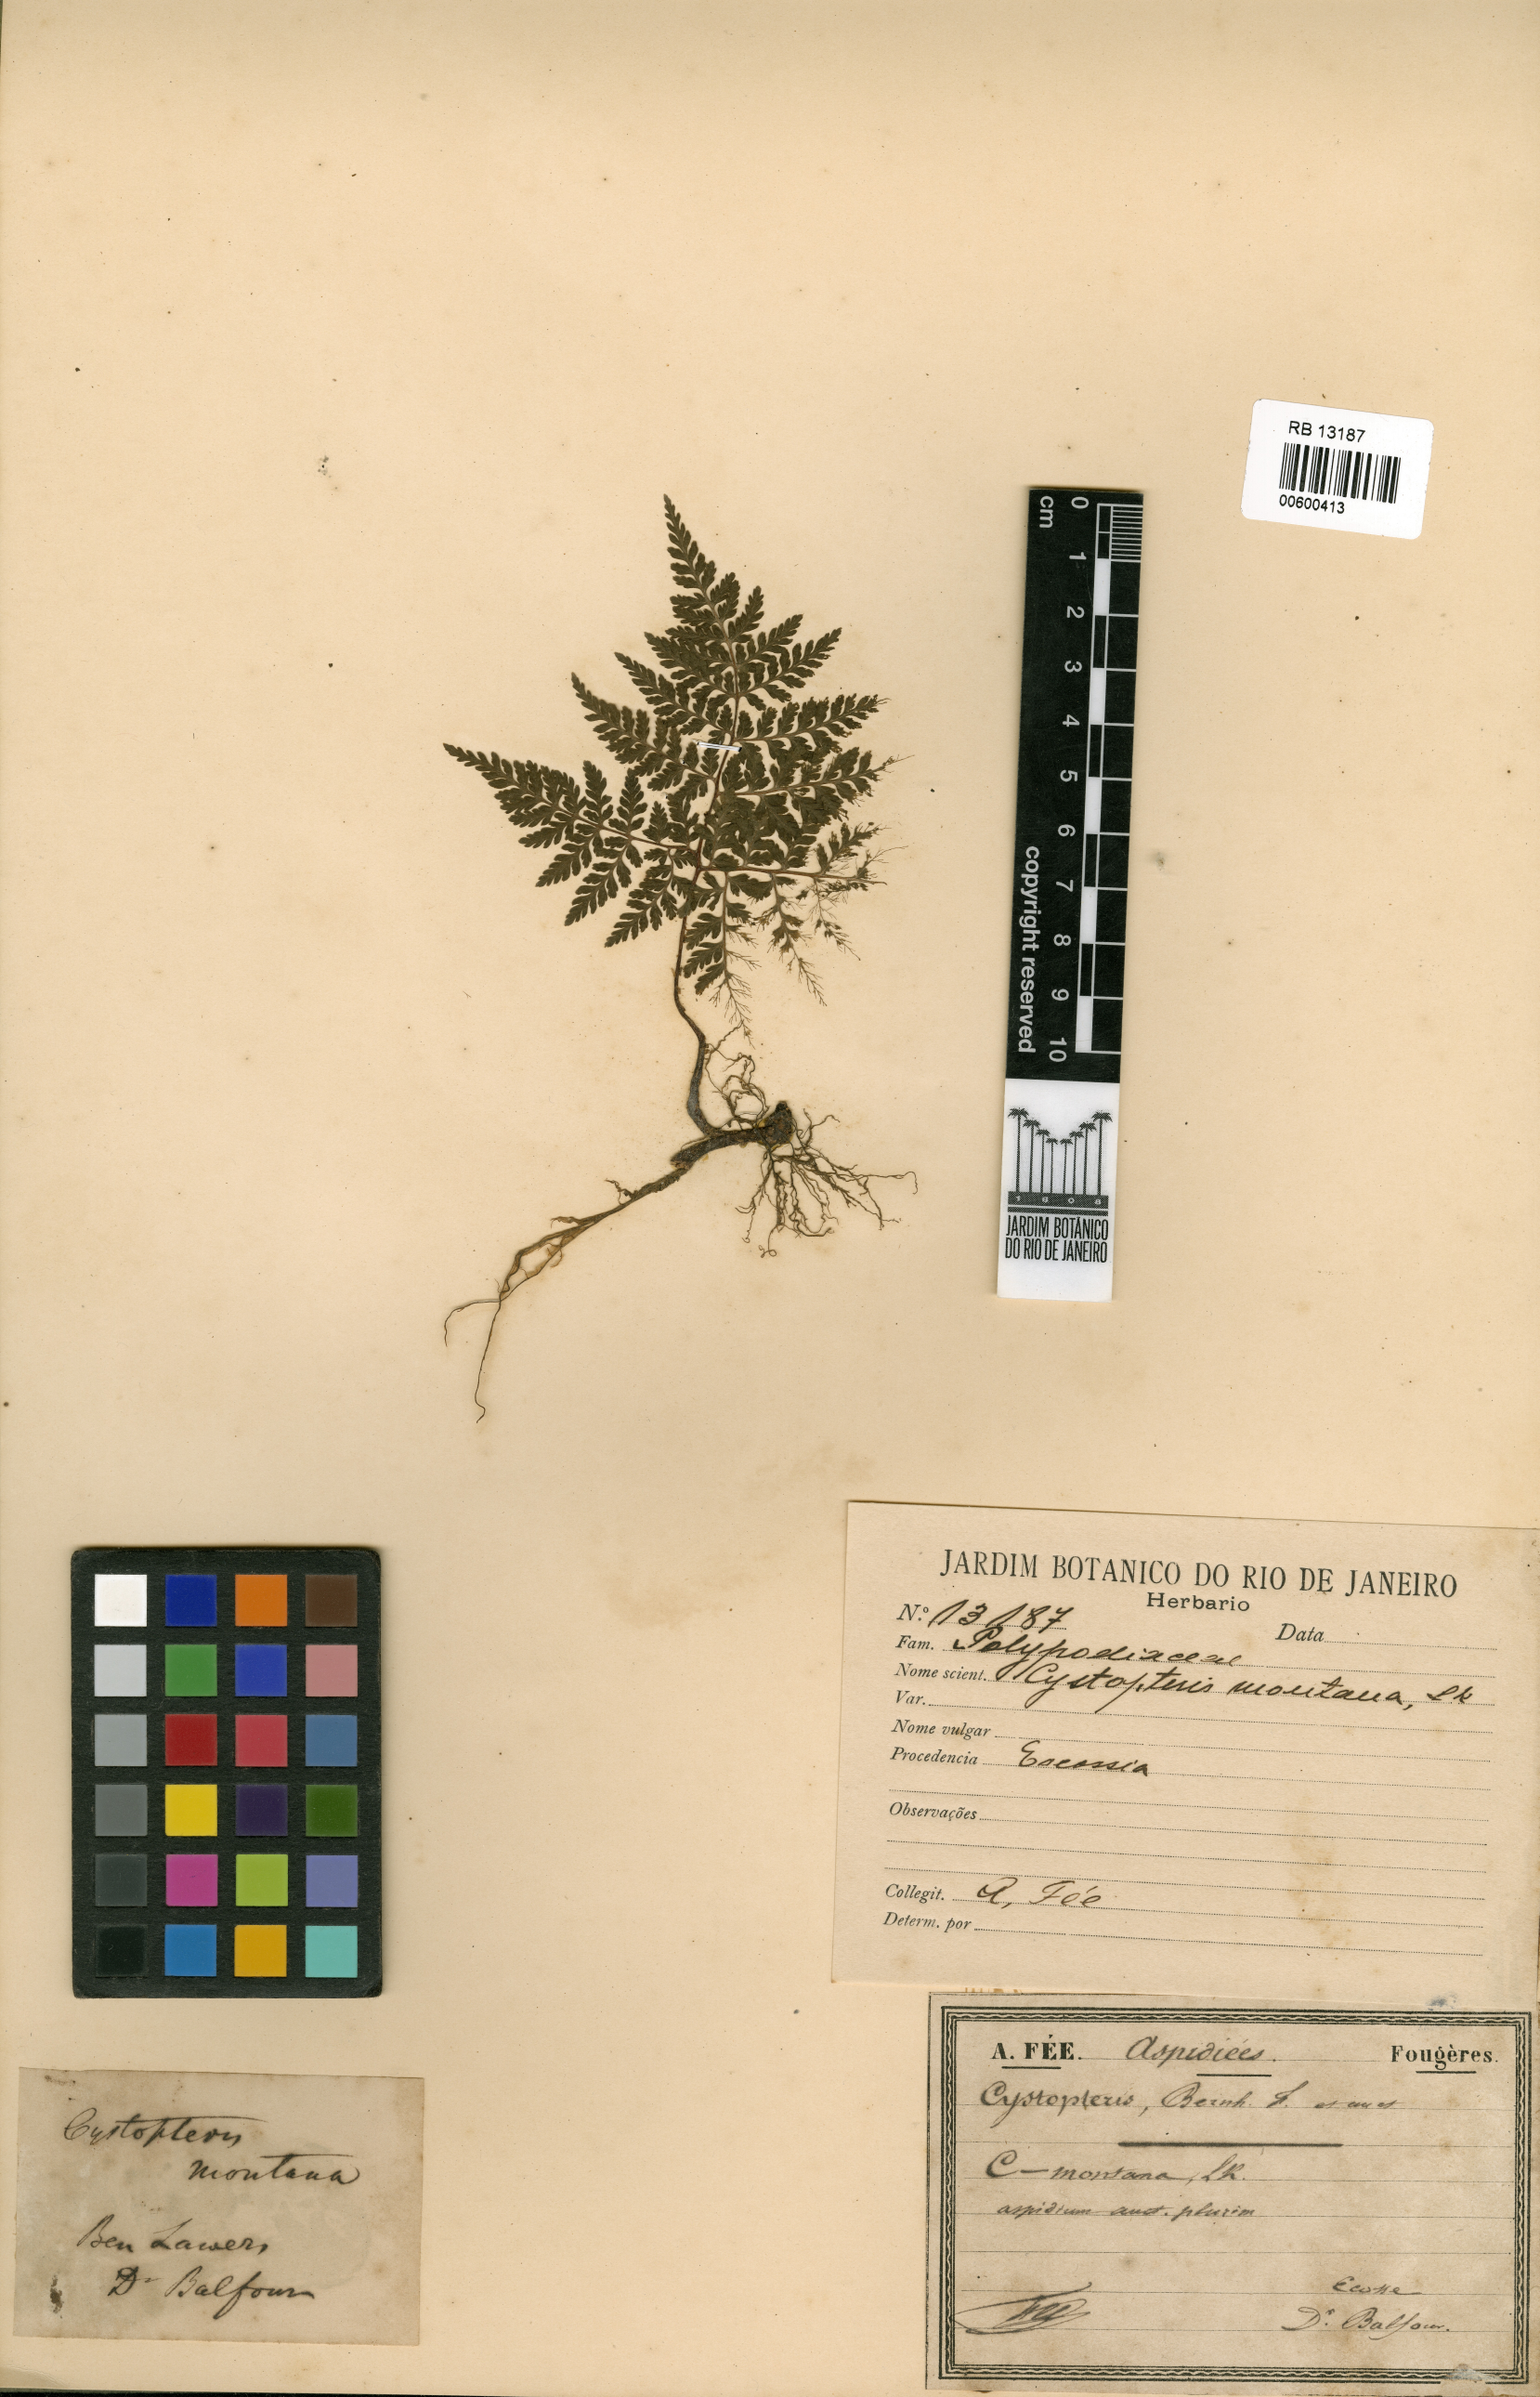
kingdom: Plantae
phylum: Tracheophyta
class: Polypodiopsida
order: Polypodiales
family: Cystopteridaceae
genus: Cystopteris
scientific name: Cystopteris montana
